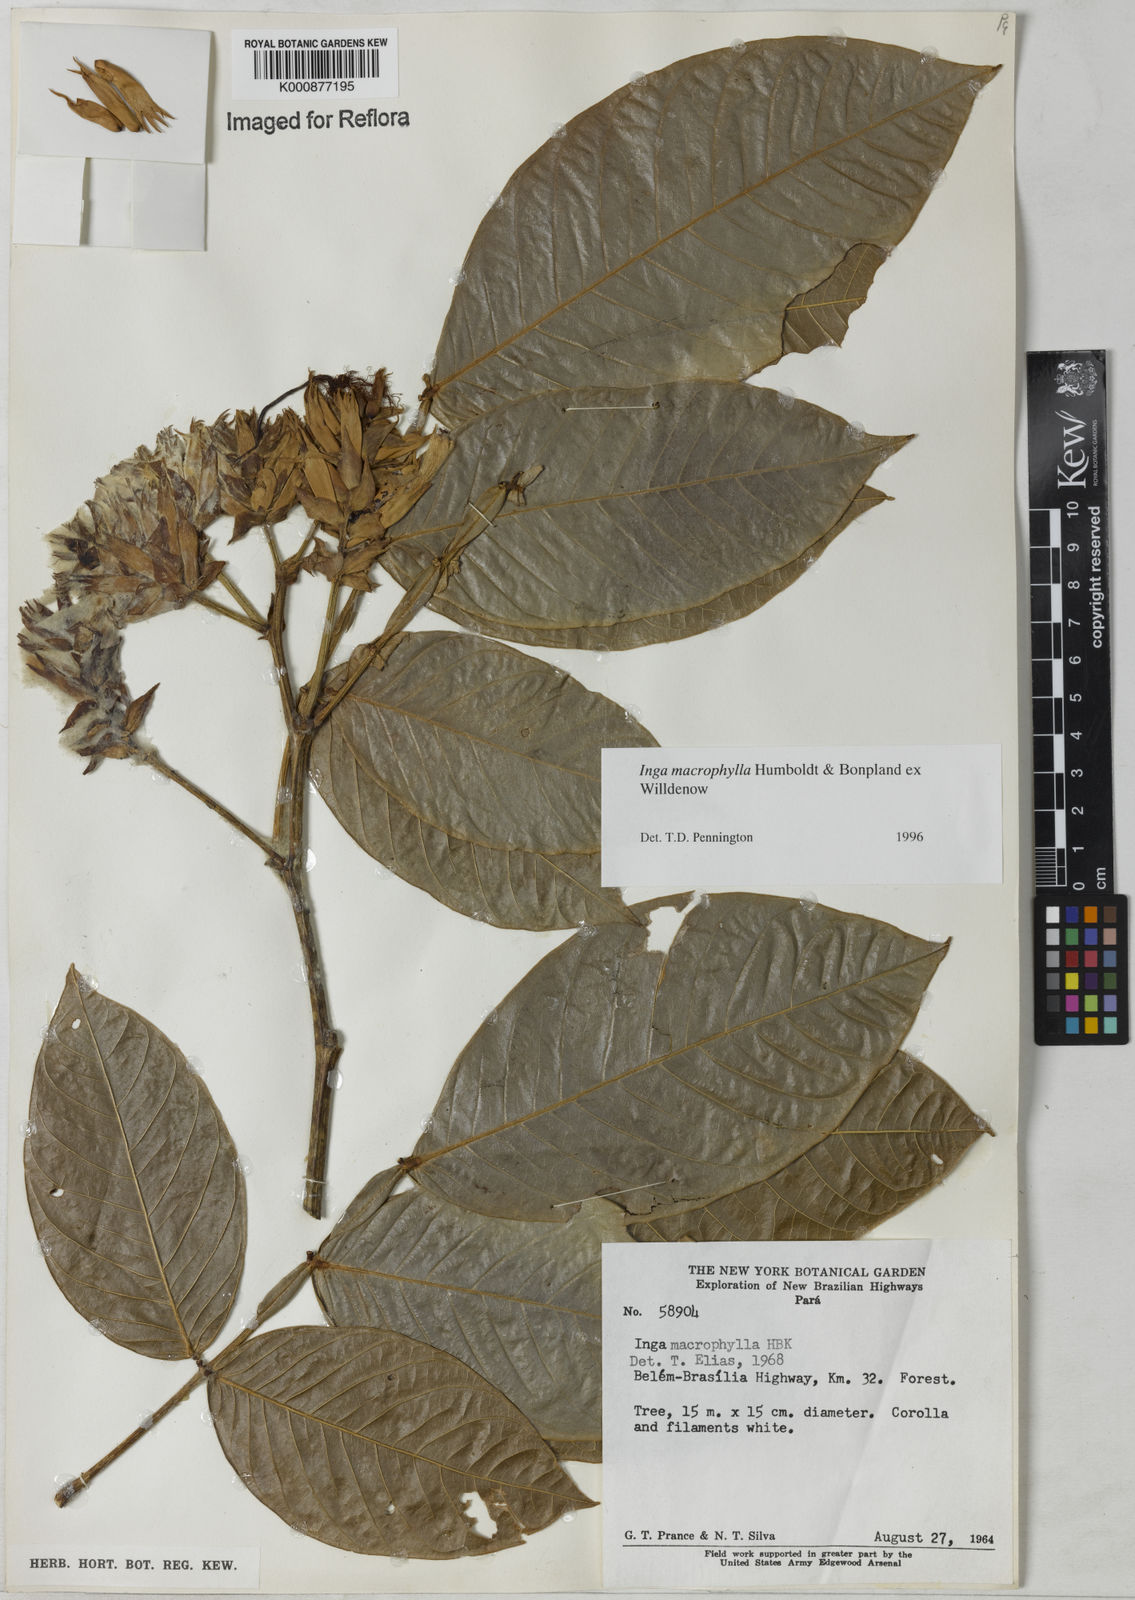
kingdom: Plantae
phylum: Tracheophyta
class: Magnoliopsida
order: Fabales
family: Fabaceae
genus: Inga
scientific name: Inga macrophylla
